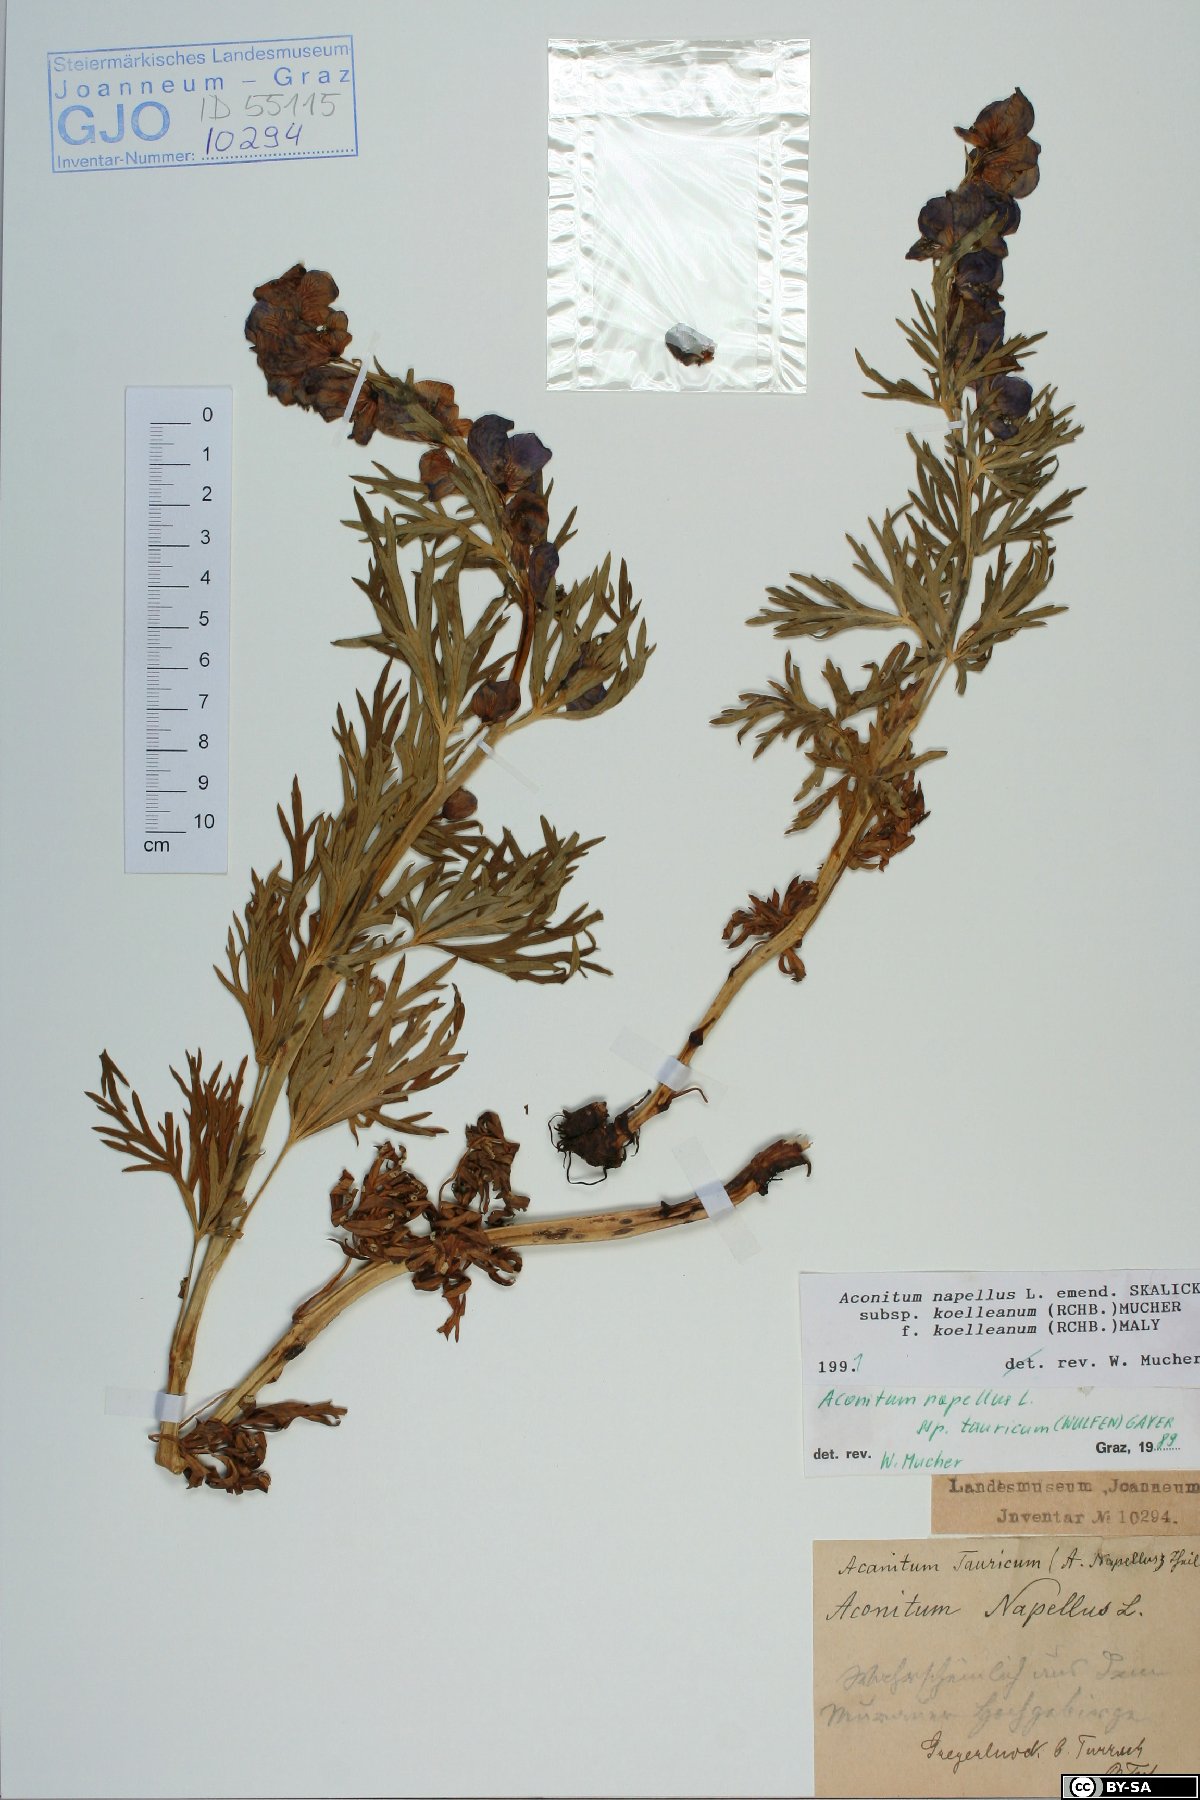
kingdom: Plantae
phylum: Tracheophyta
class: Magnoliopsida
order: Ranunculales
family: Ranunculaceae
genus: Aconitum
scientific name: Aconitum tauricum
